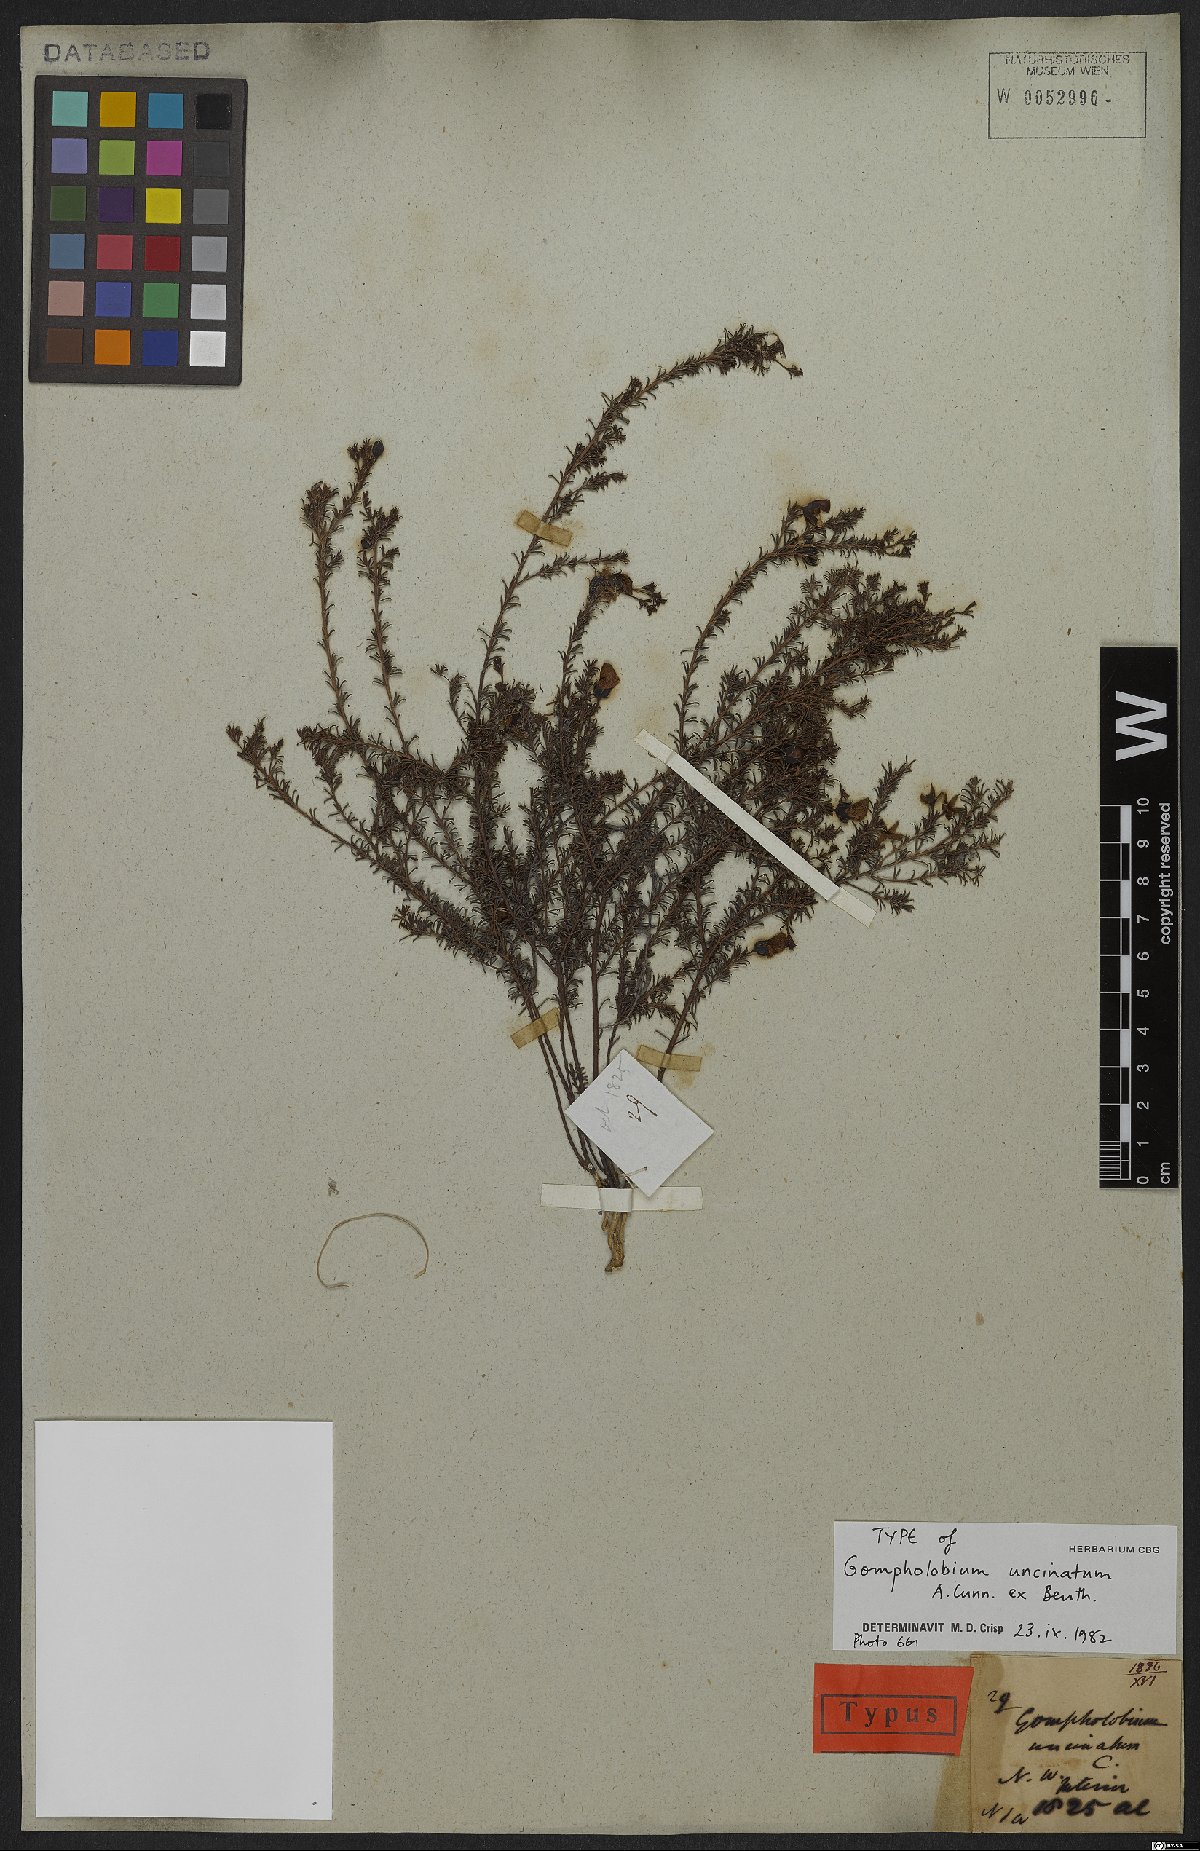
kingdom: Plantae
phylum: Tracheophyta
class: Magnoliopsida
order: Fabales
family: Fabaceae
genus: Gompholobium
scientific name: Gompholobium uncinatum
